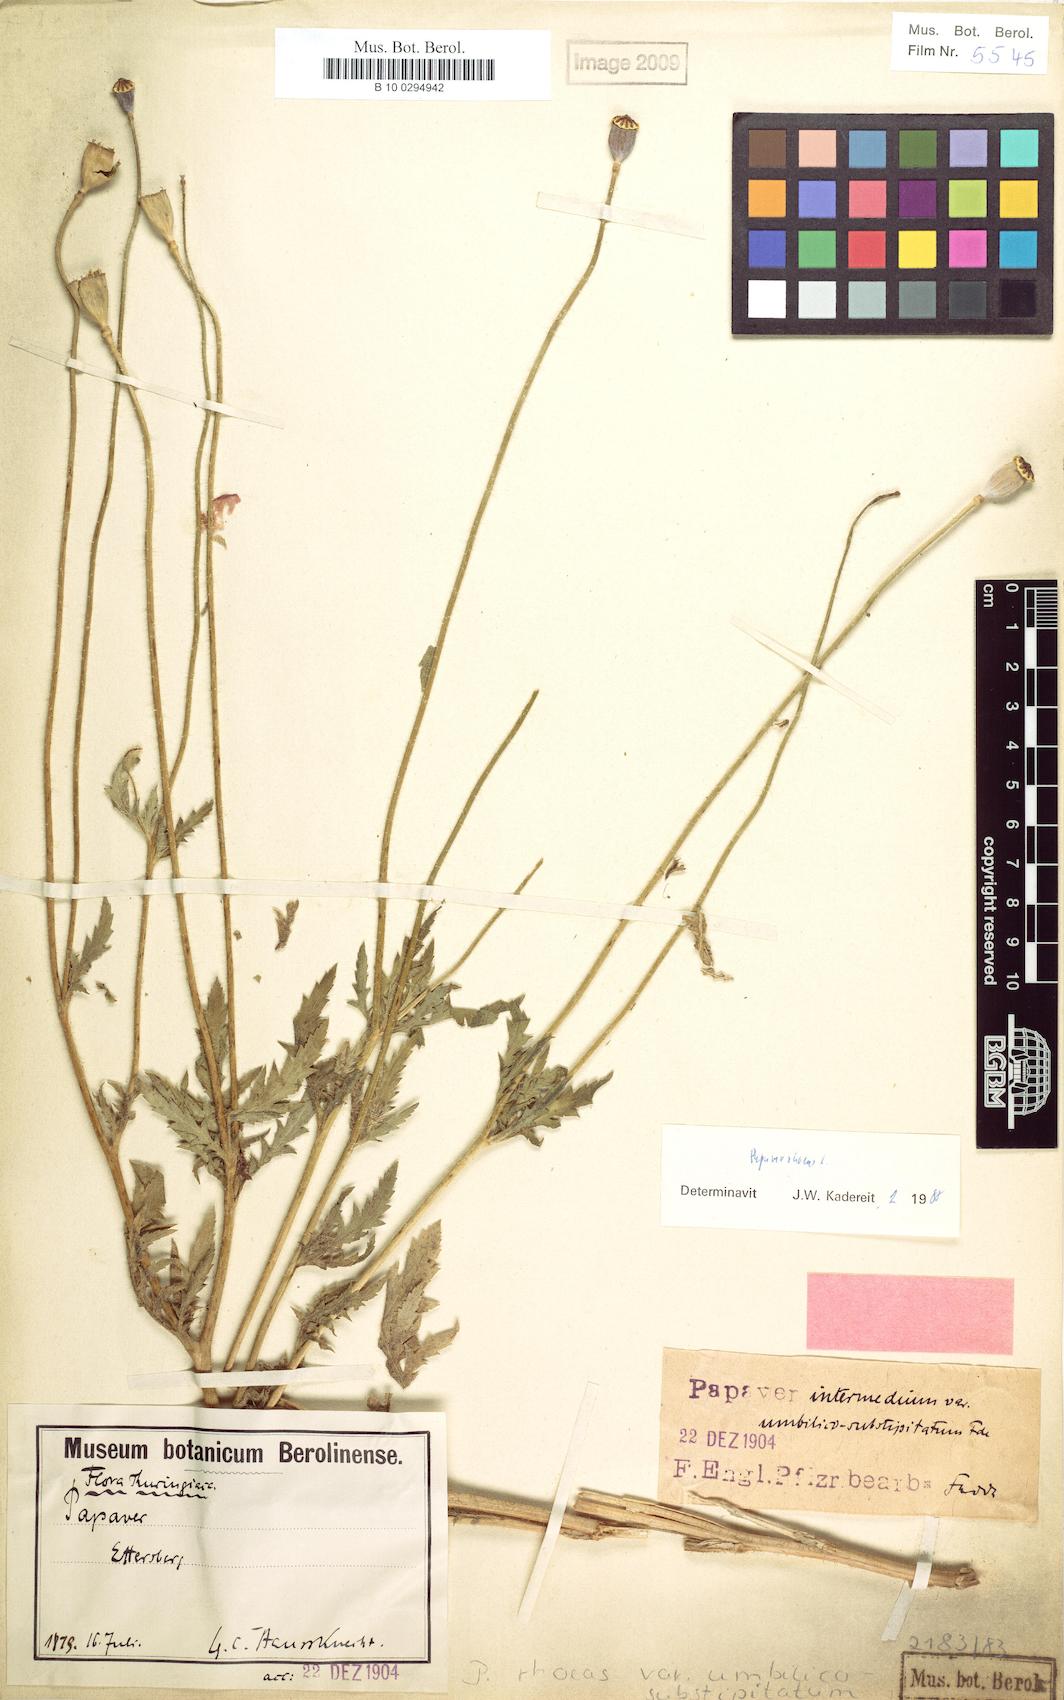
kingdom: Plantae
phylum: Tracheophyta
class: Magnoliopsida
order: Ranunculales
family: Papaveraceae
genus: Papaver
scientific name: Papaver rhoeas
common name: Corn poppy
